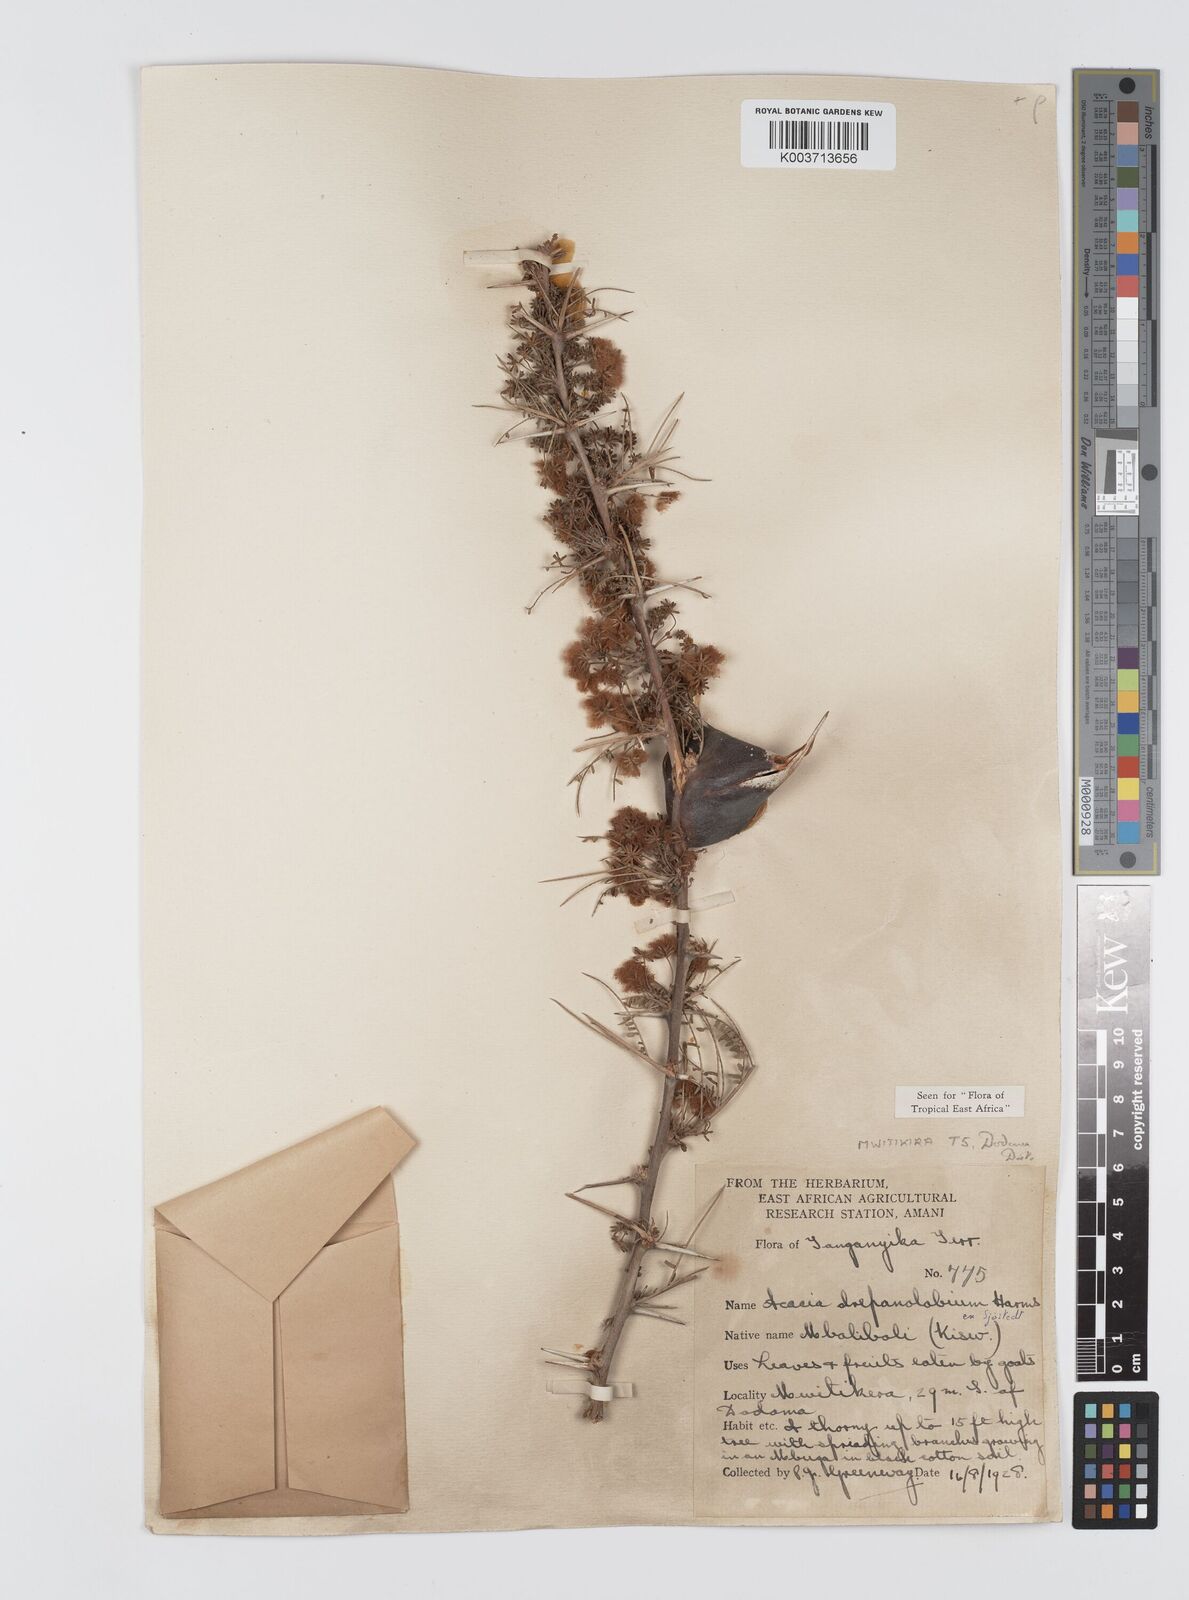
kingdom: Plantae
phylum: Tracheophyta
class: Magnoliopsida
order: Fabales
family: Fabaceae
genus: Vachellia
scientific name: Vachellia drepanolobium
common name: Whistling thorn
